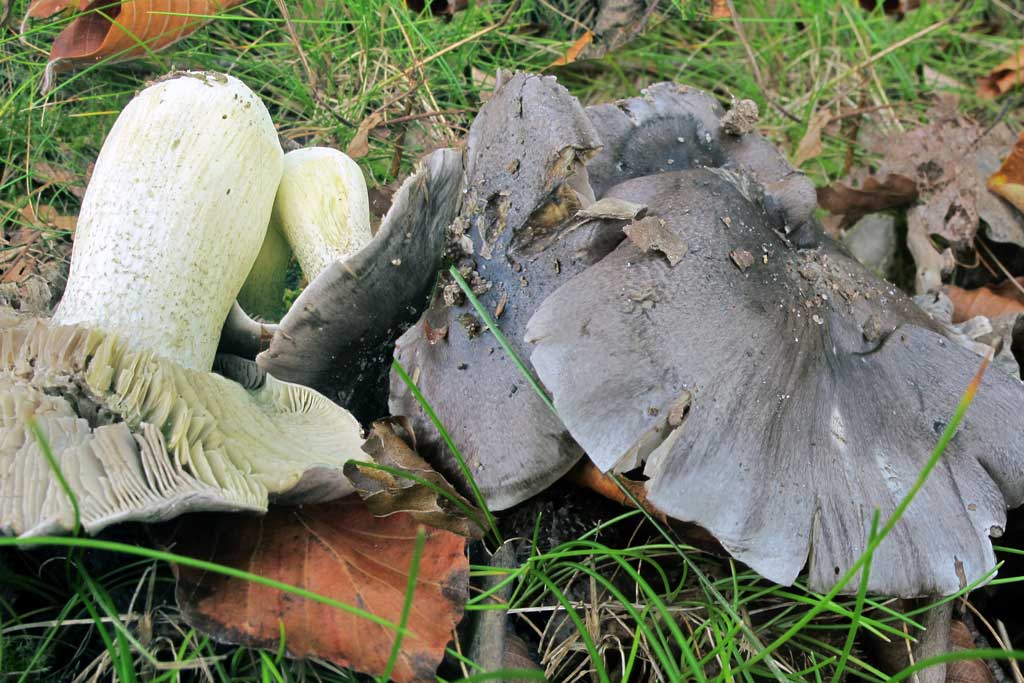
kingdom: Fungi
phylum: Basidiomycota
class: Agaricomycetes
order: Agaricales
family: Tricholomataceae
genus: Tricholoma
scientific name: Tricholoma portentosum
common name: grå ridderhat
